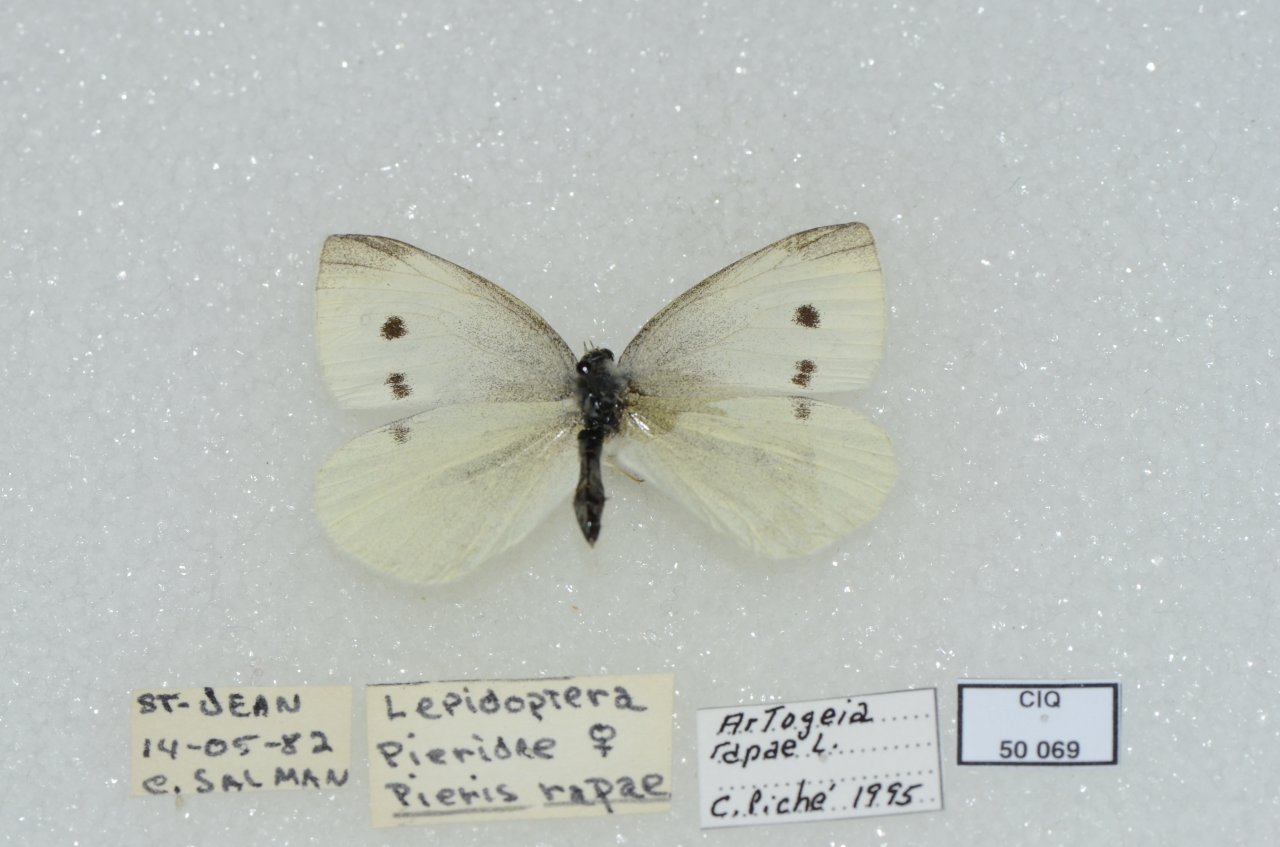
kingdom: Animalia
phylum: Arthropoda
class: Insecta
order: Lepidoptera
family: Pieridae
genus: Pieris
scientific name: Pieris rapae
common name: Cabbage White
